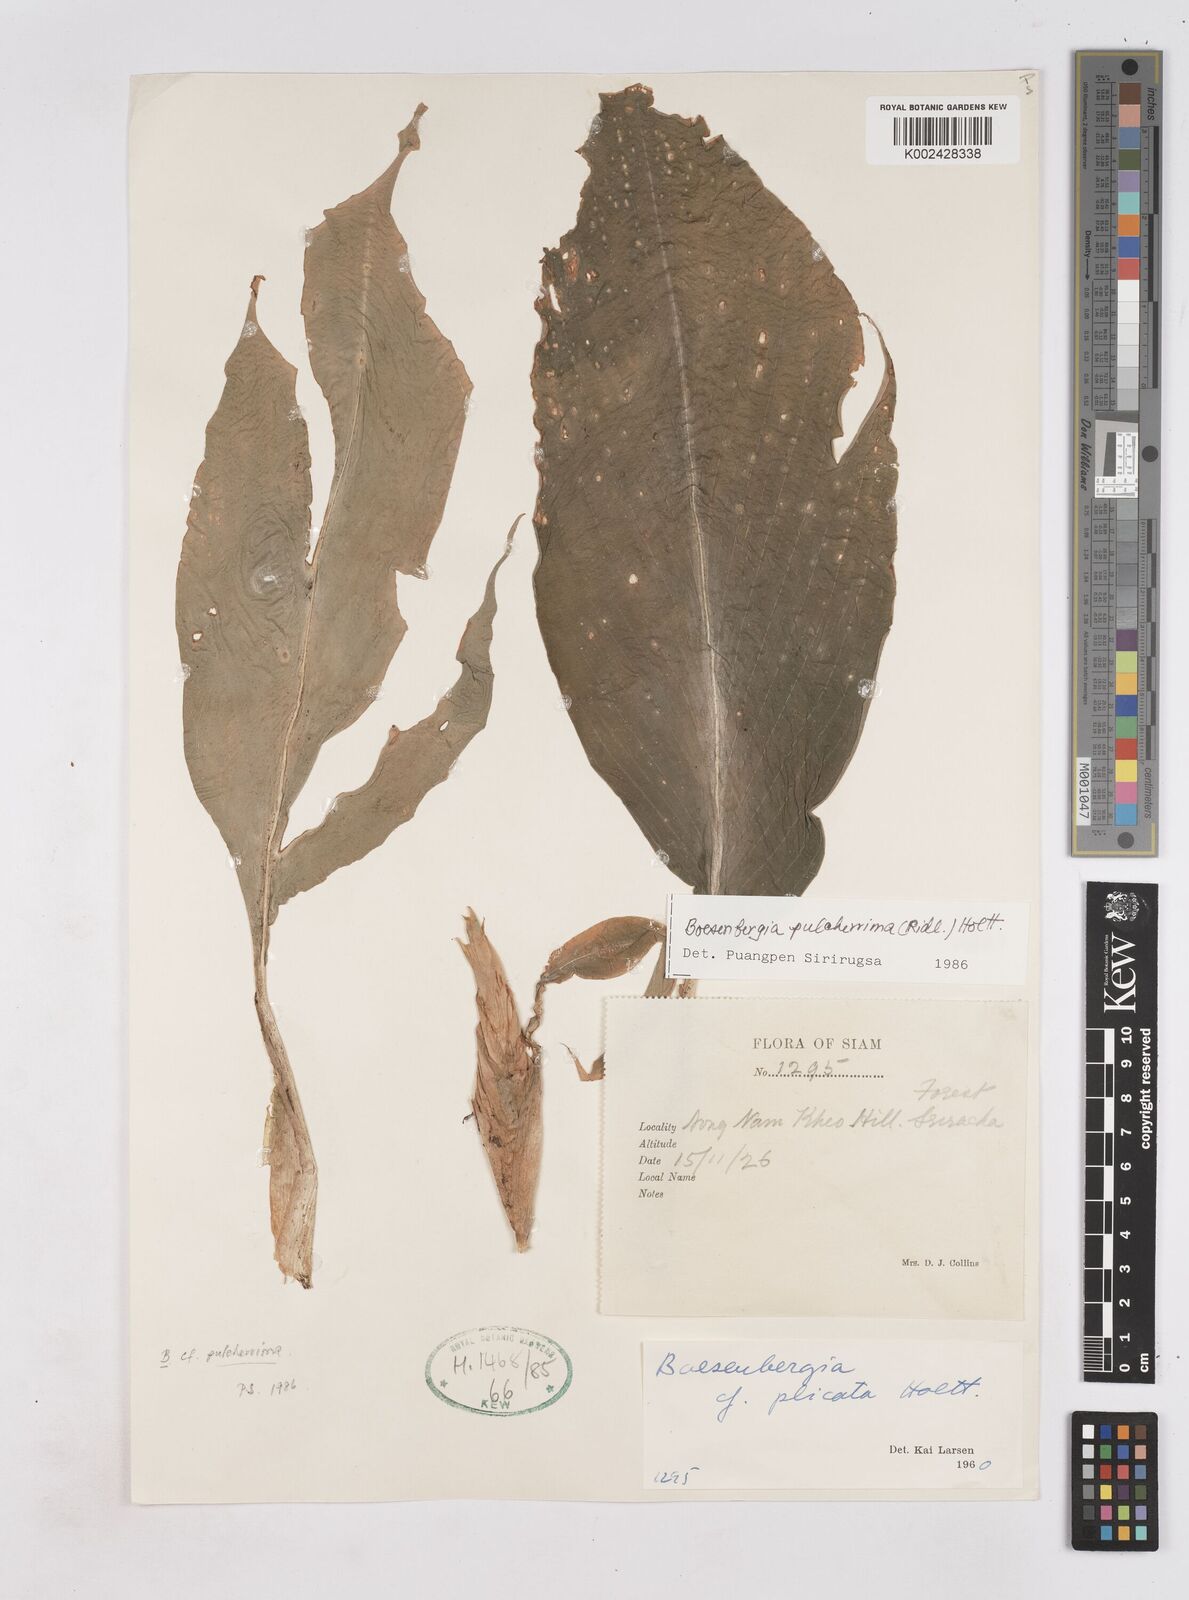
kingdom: Plantae
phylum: Tracheophyta
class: Liliopsida
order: Zingiberales
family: Zingiberaceae
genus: Boesenbergia
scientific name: Boesenbergia pulcherrima
